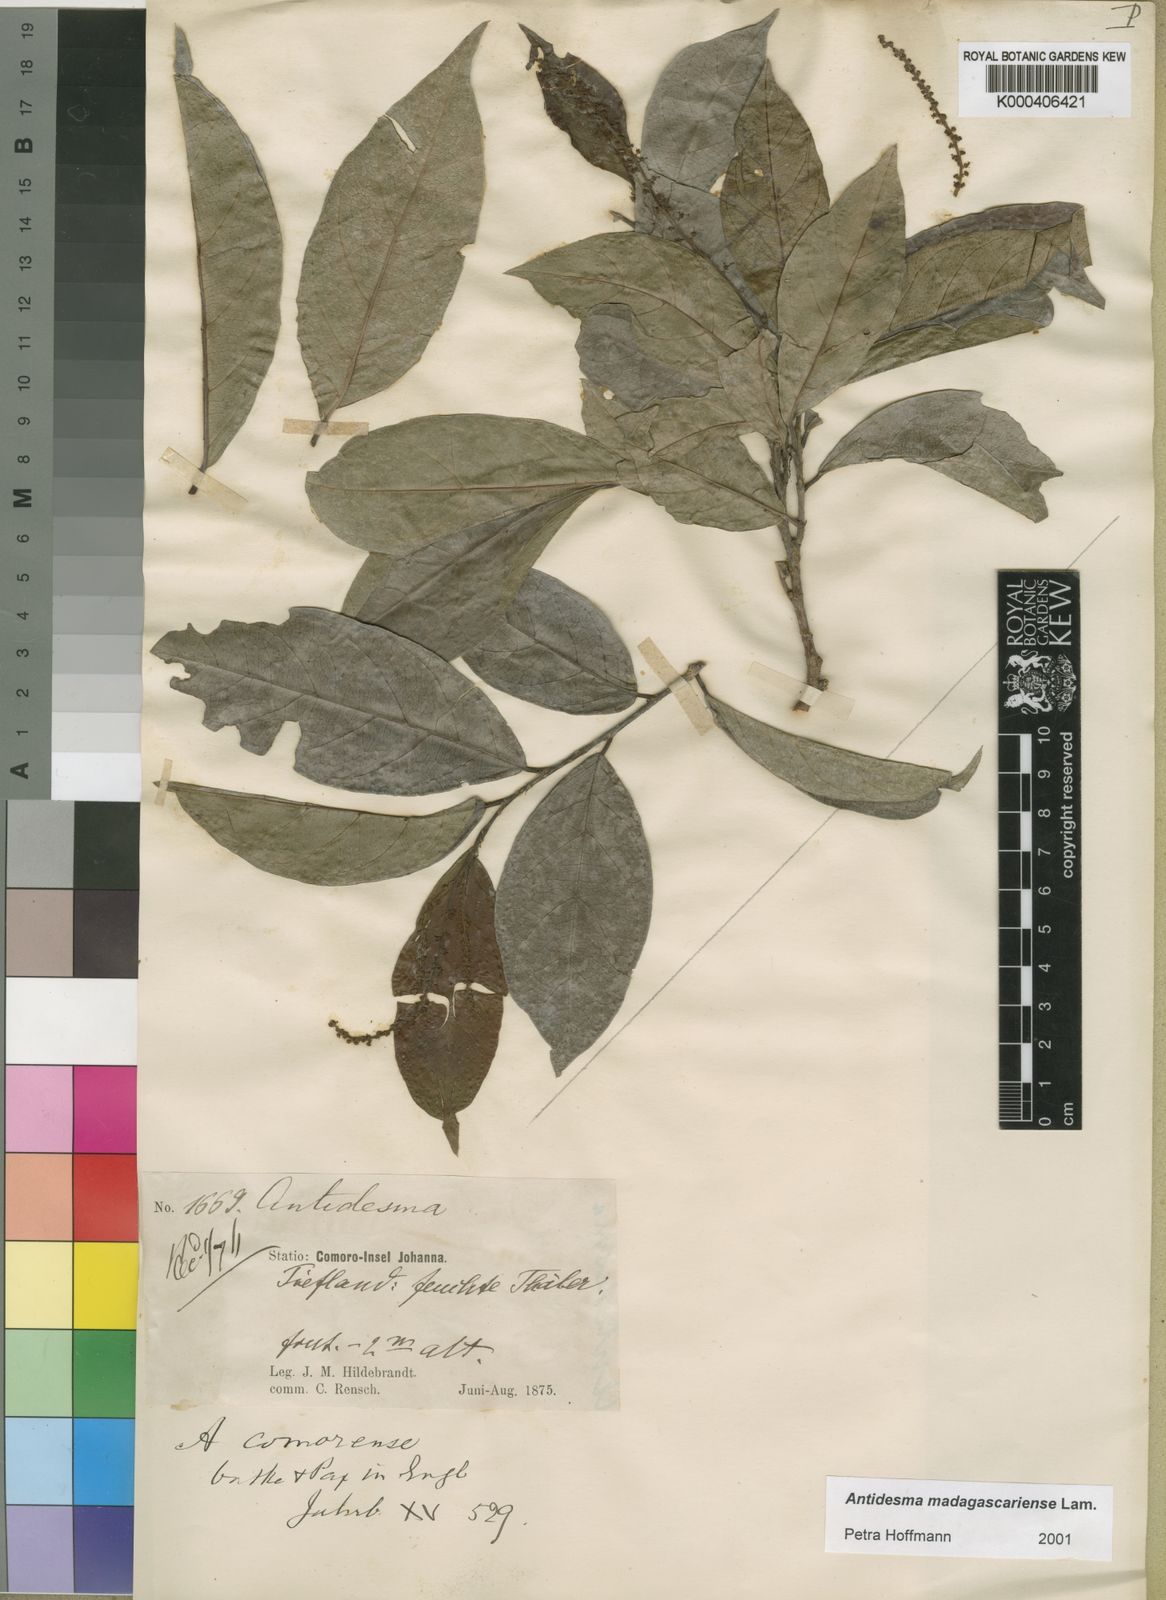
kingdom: Plantae
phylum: Tracheophyta
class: Magnoliopsida
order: Malpighiales
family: Phyllanthaceae
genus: Antidesma
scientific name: Antidesma madagascariense
